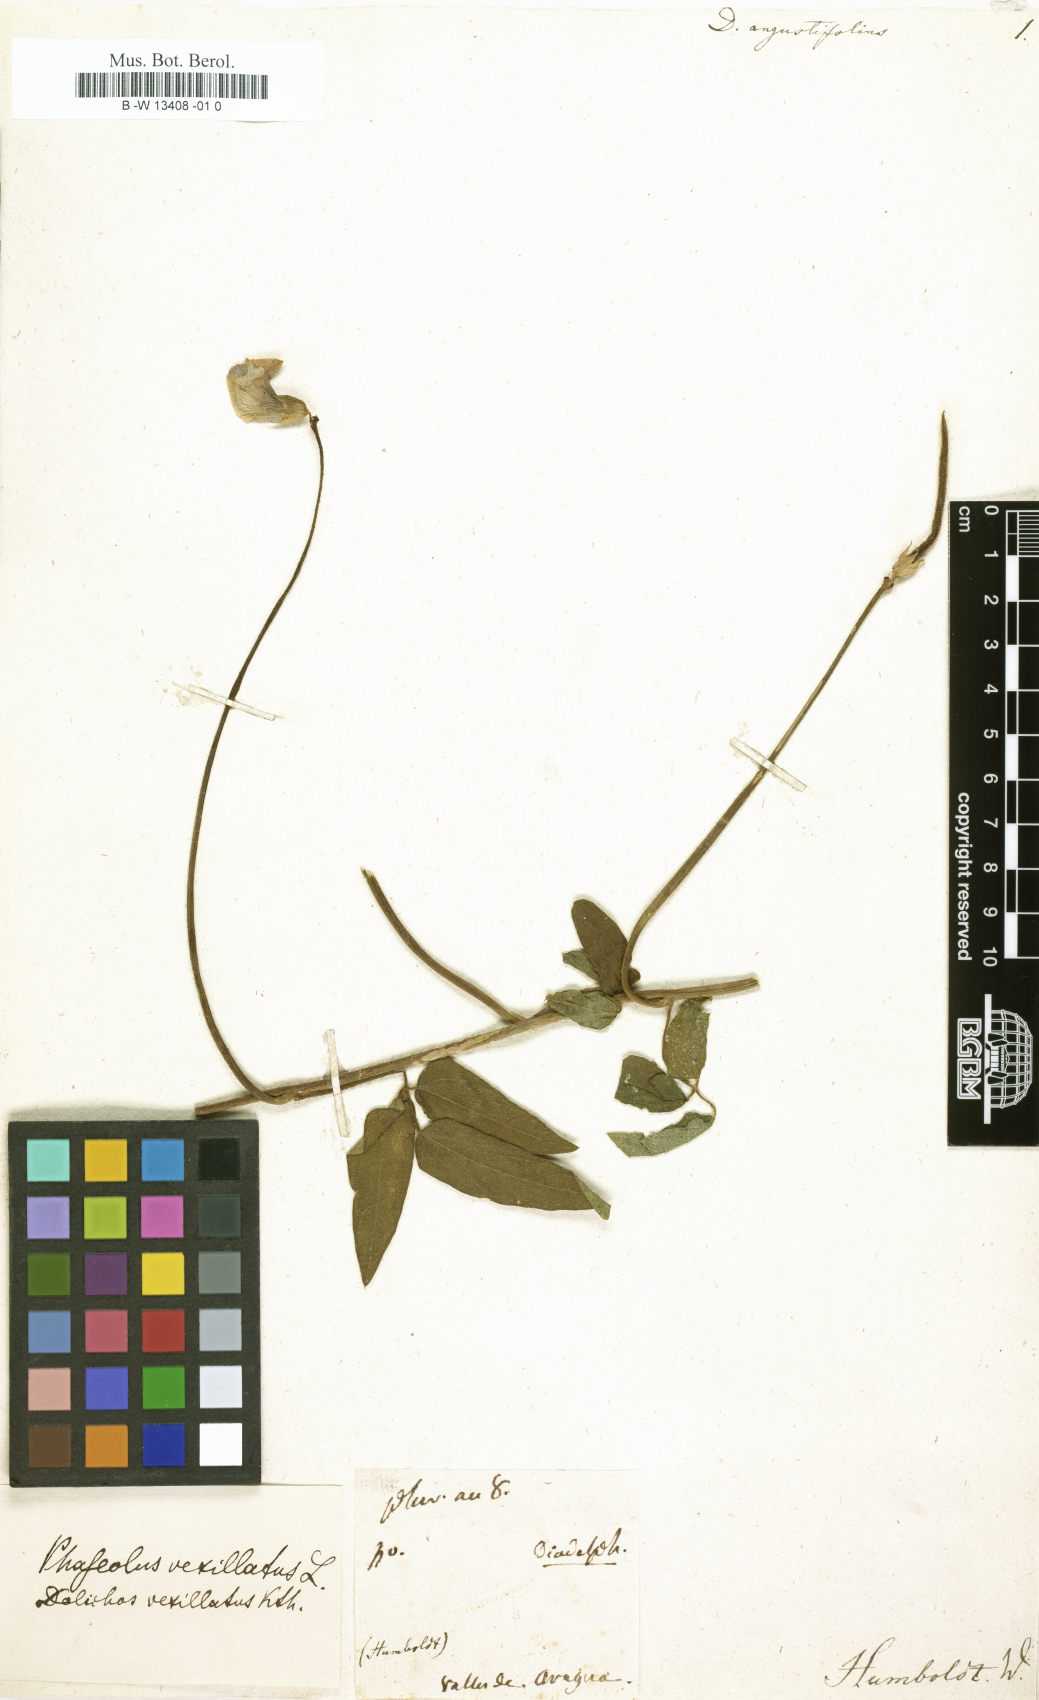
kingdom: Plantae
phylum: Tracheophyta
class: Magnoliopsida
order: Fabales
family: Fabaceae
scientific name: Fabaceae
